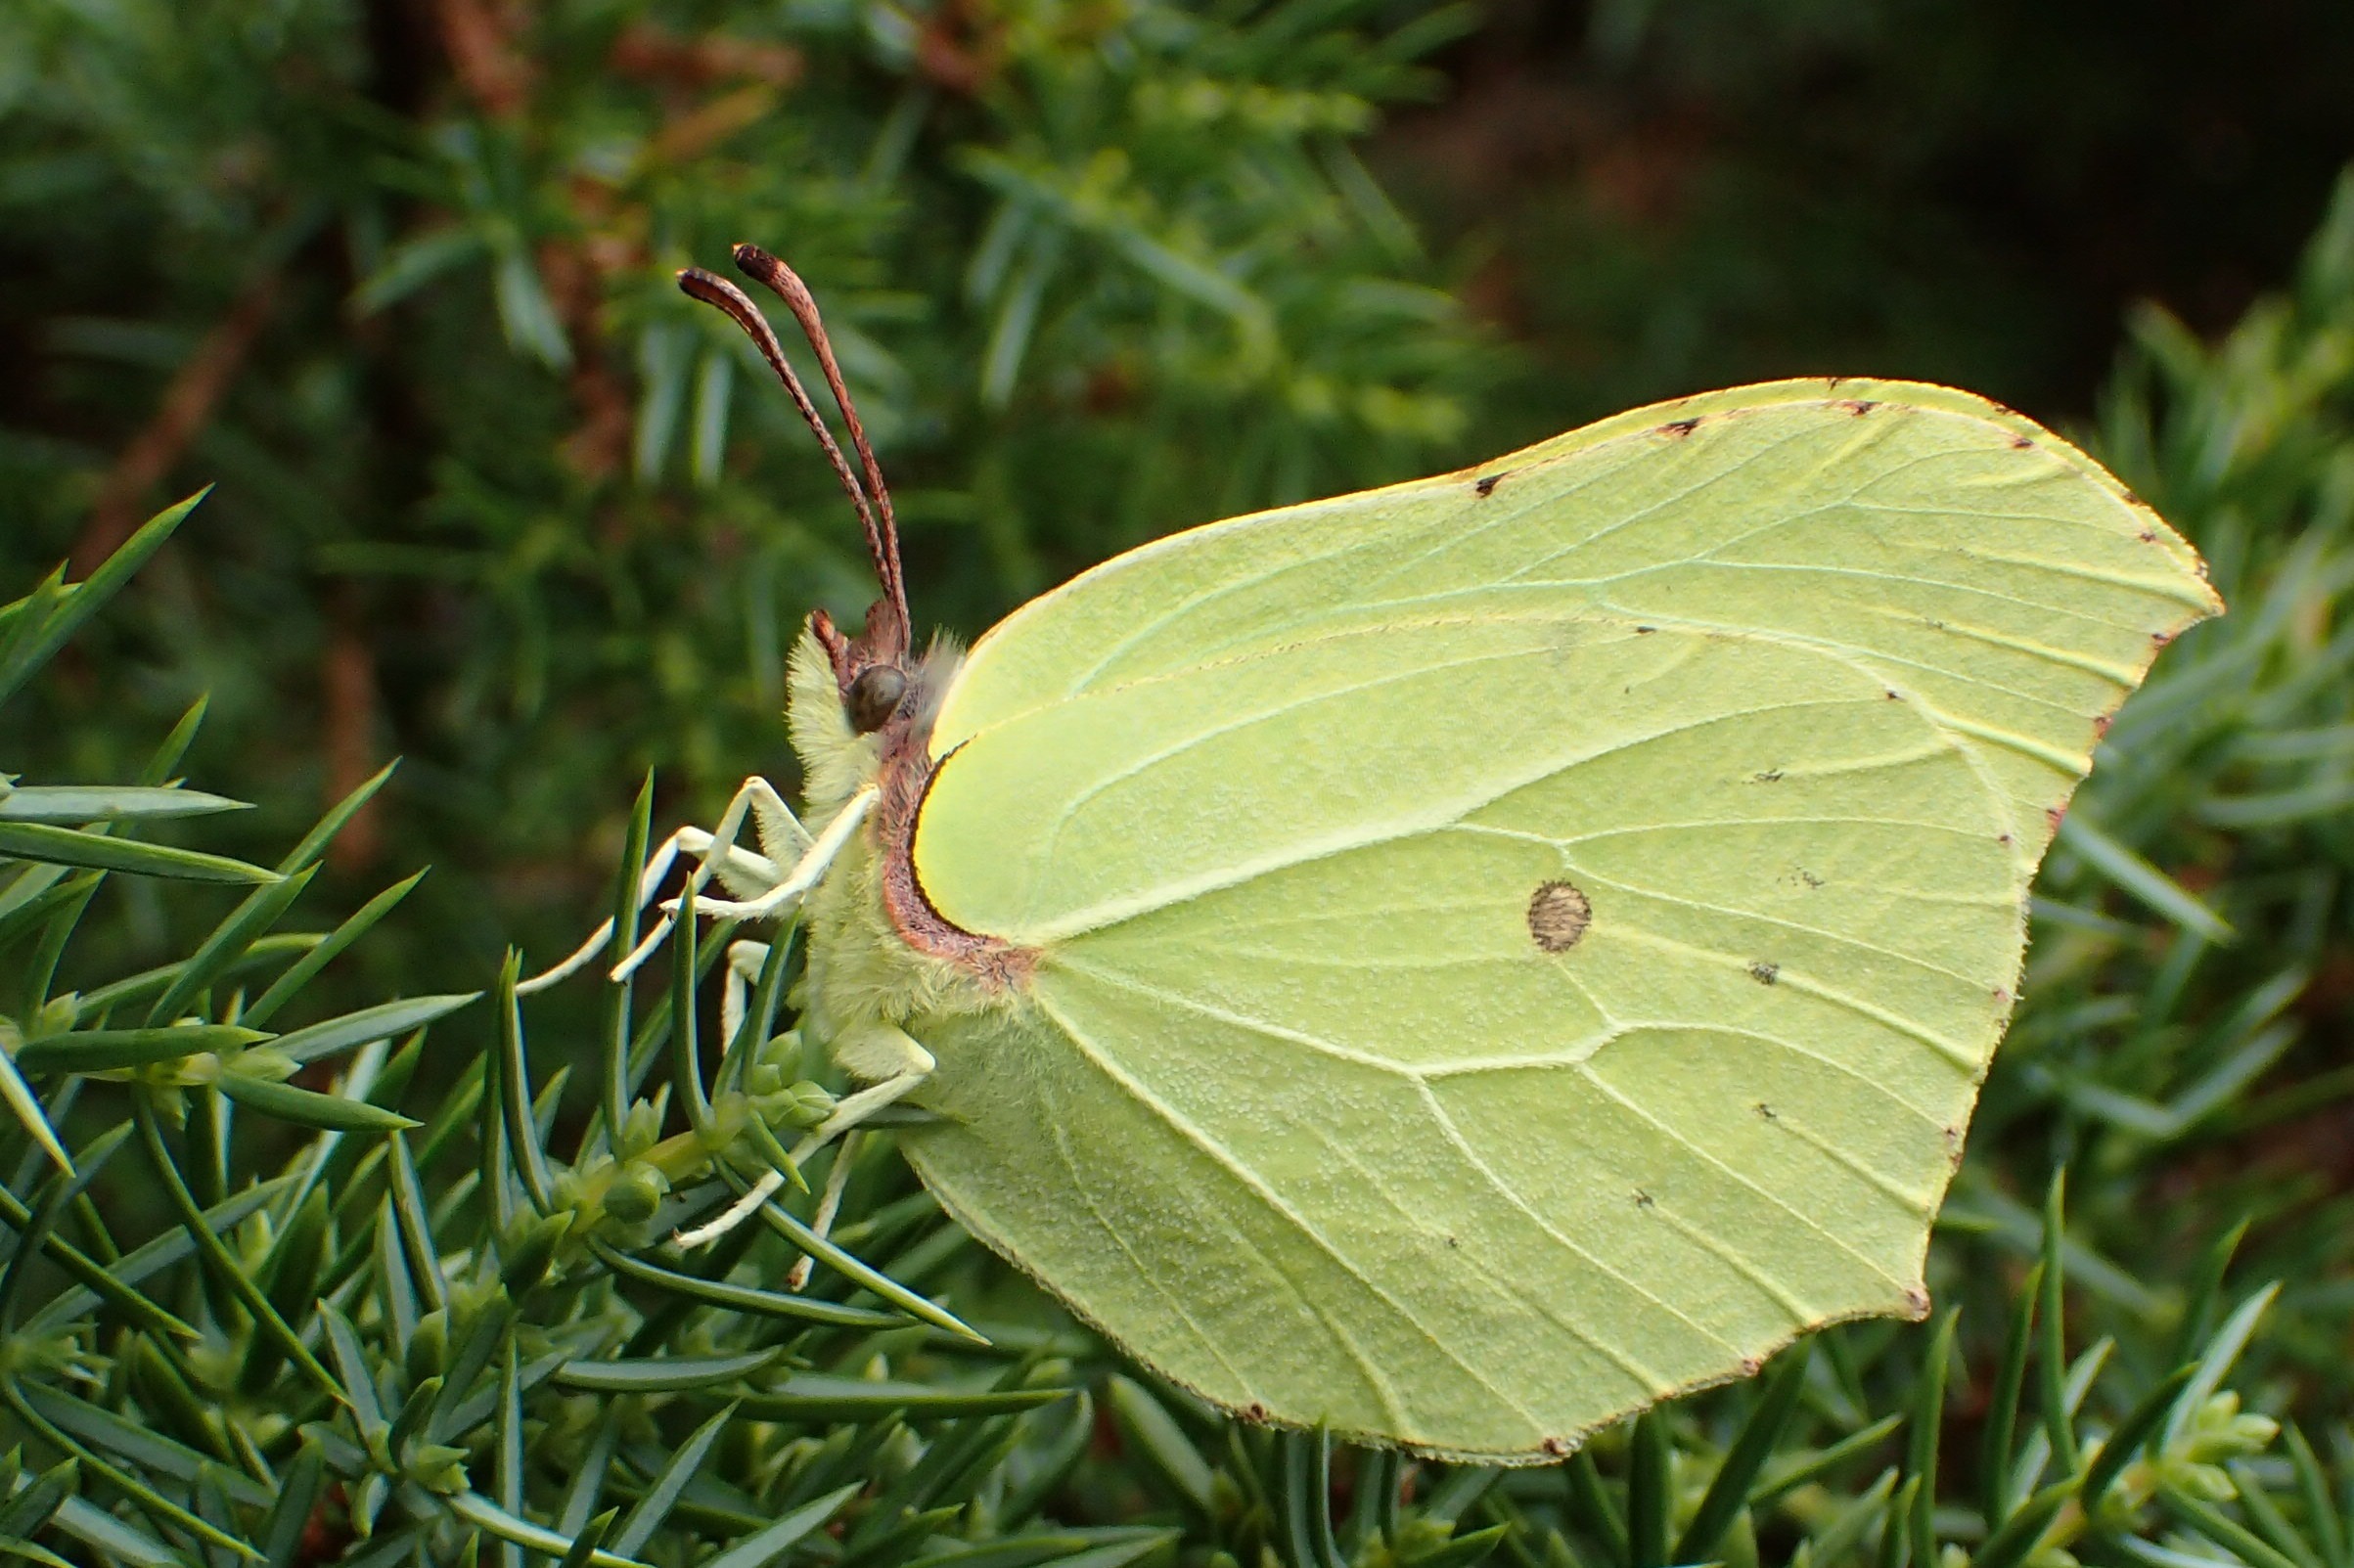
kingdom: Animalia
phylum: Arthropoda
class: Insecta
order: Lepidoptera
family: Pieridae
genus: Gonepteryx
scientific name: Gonepteryx rhamni
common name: Citronsommerfugl
